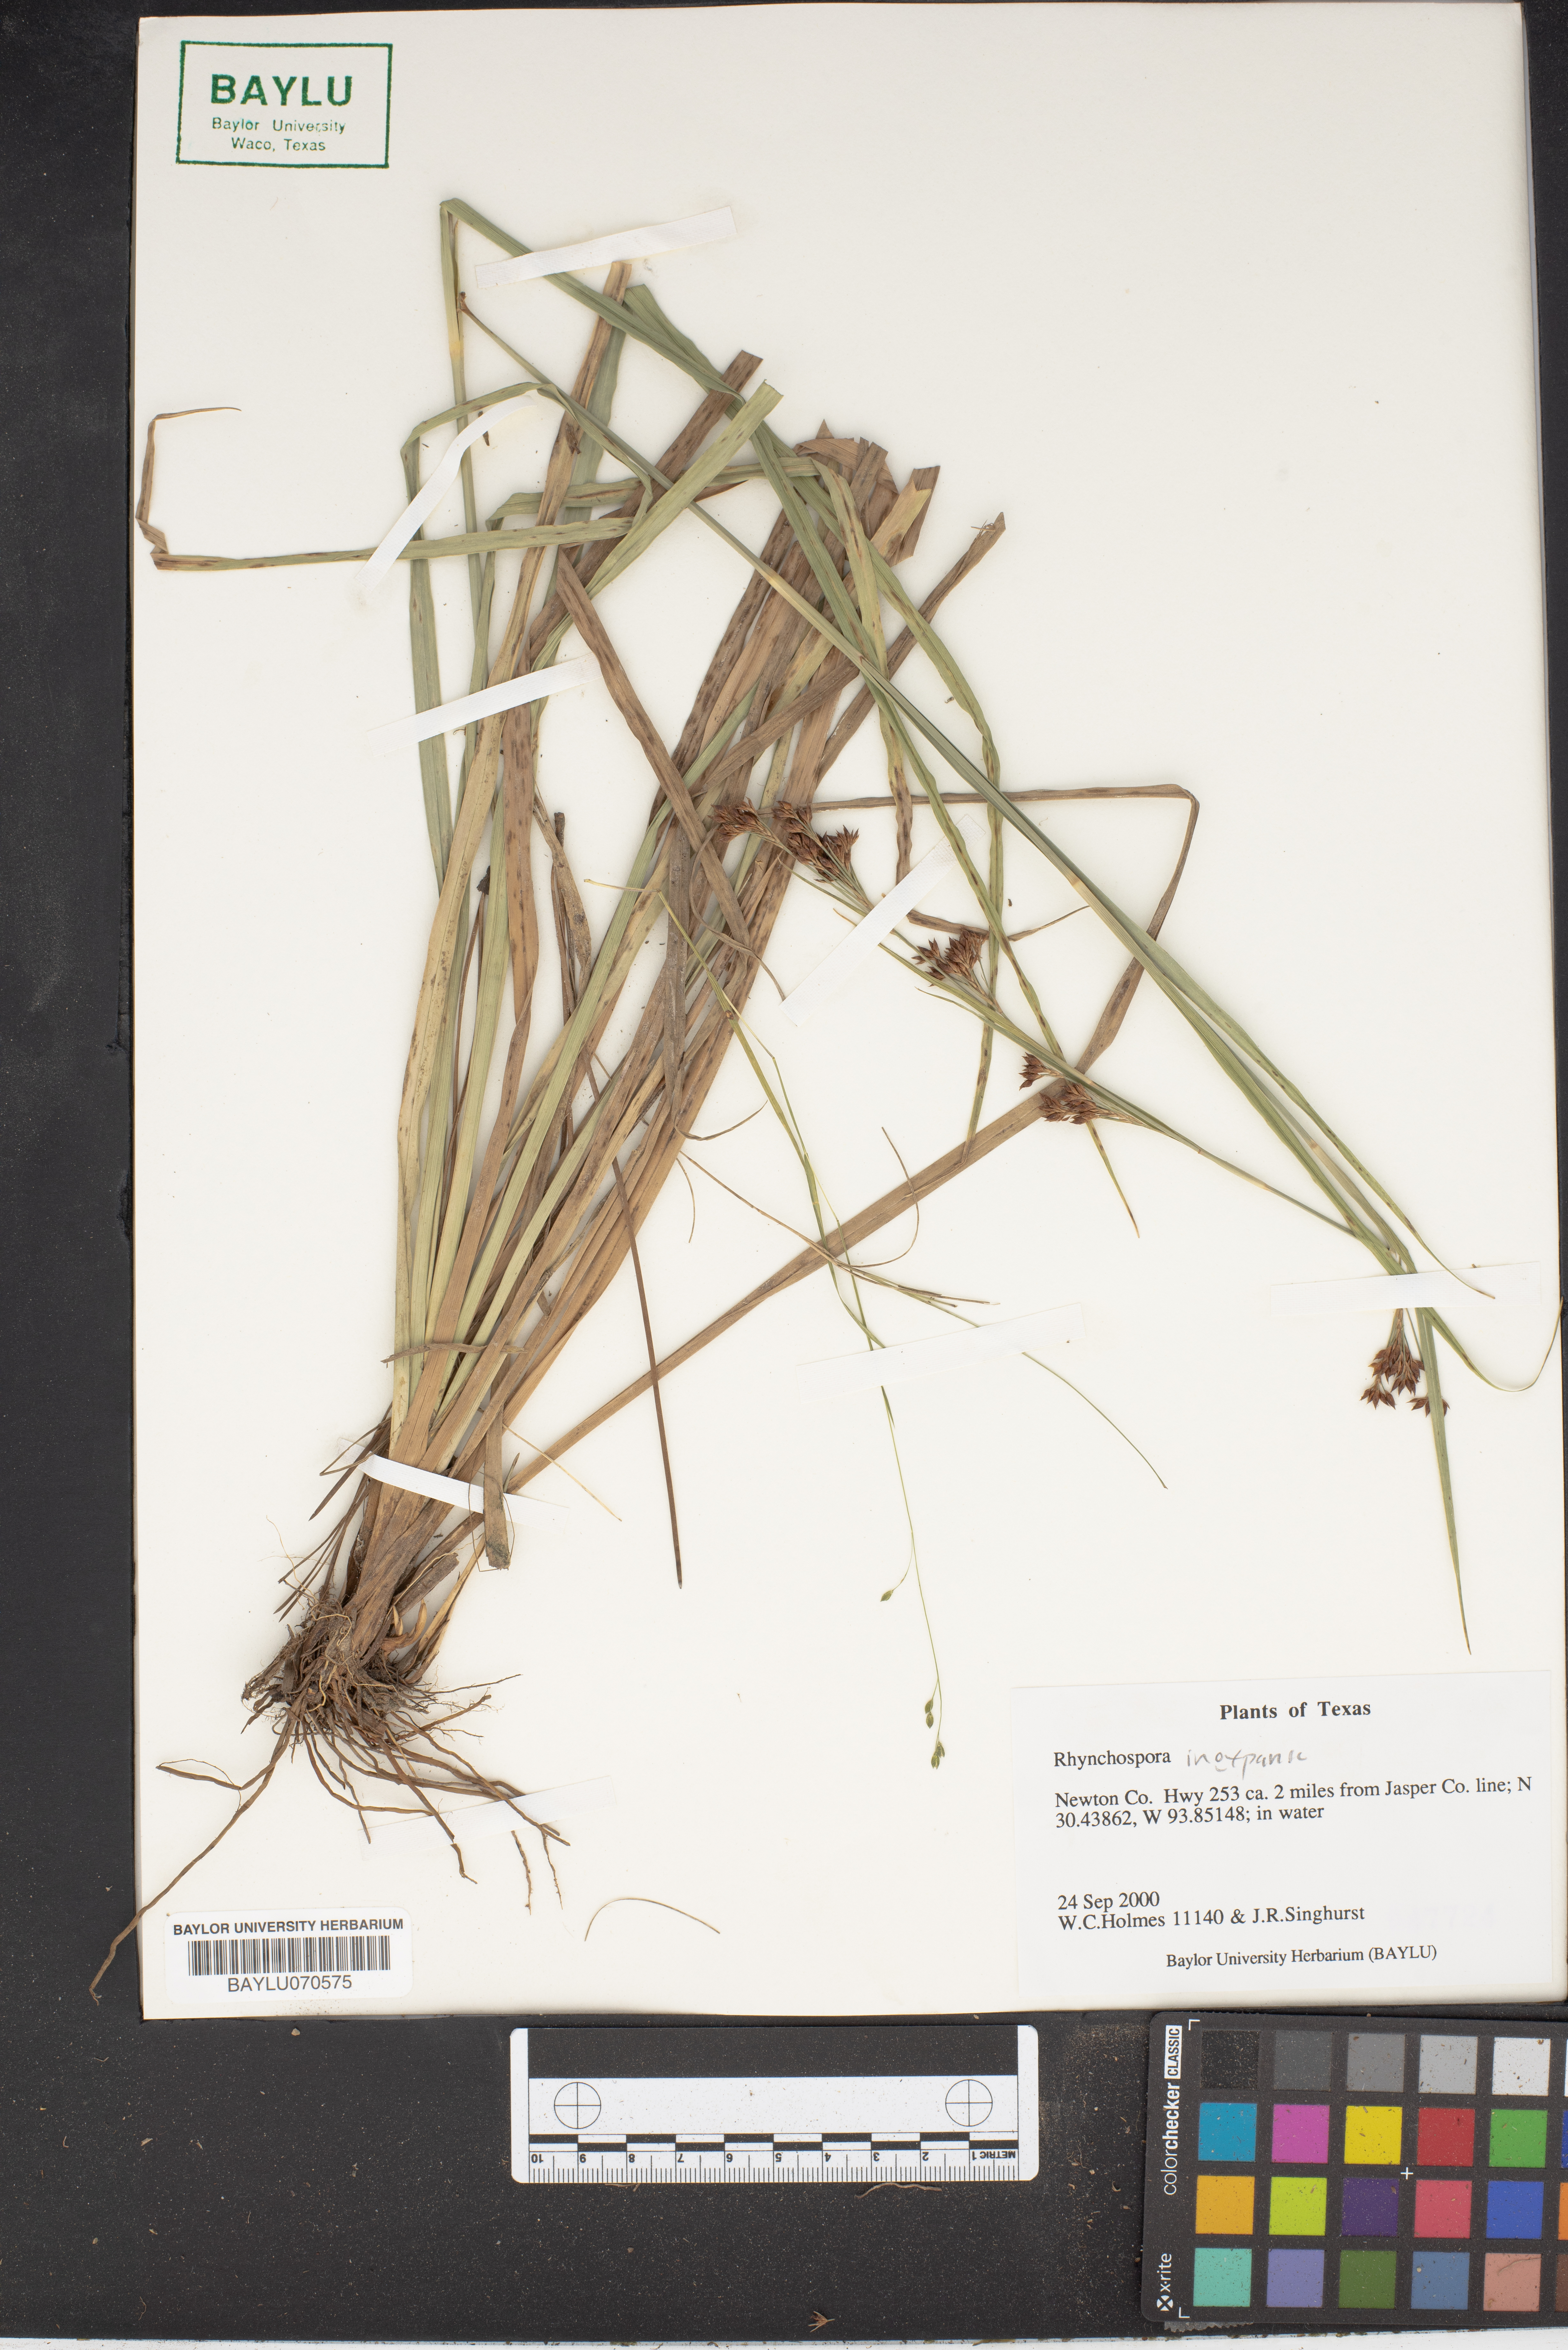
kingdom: Plantae
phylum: Tracheophyta
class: Liliopsida
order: Poales
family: Cyperaceae
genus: Rhynchospora
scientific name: Rhynchospora inexpansa
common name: Nodding beaksedge
